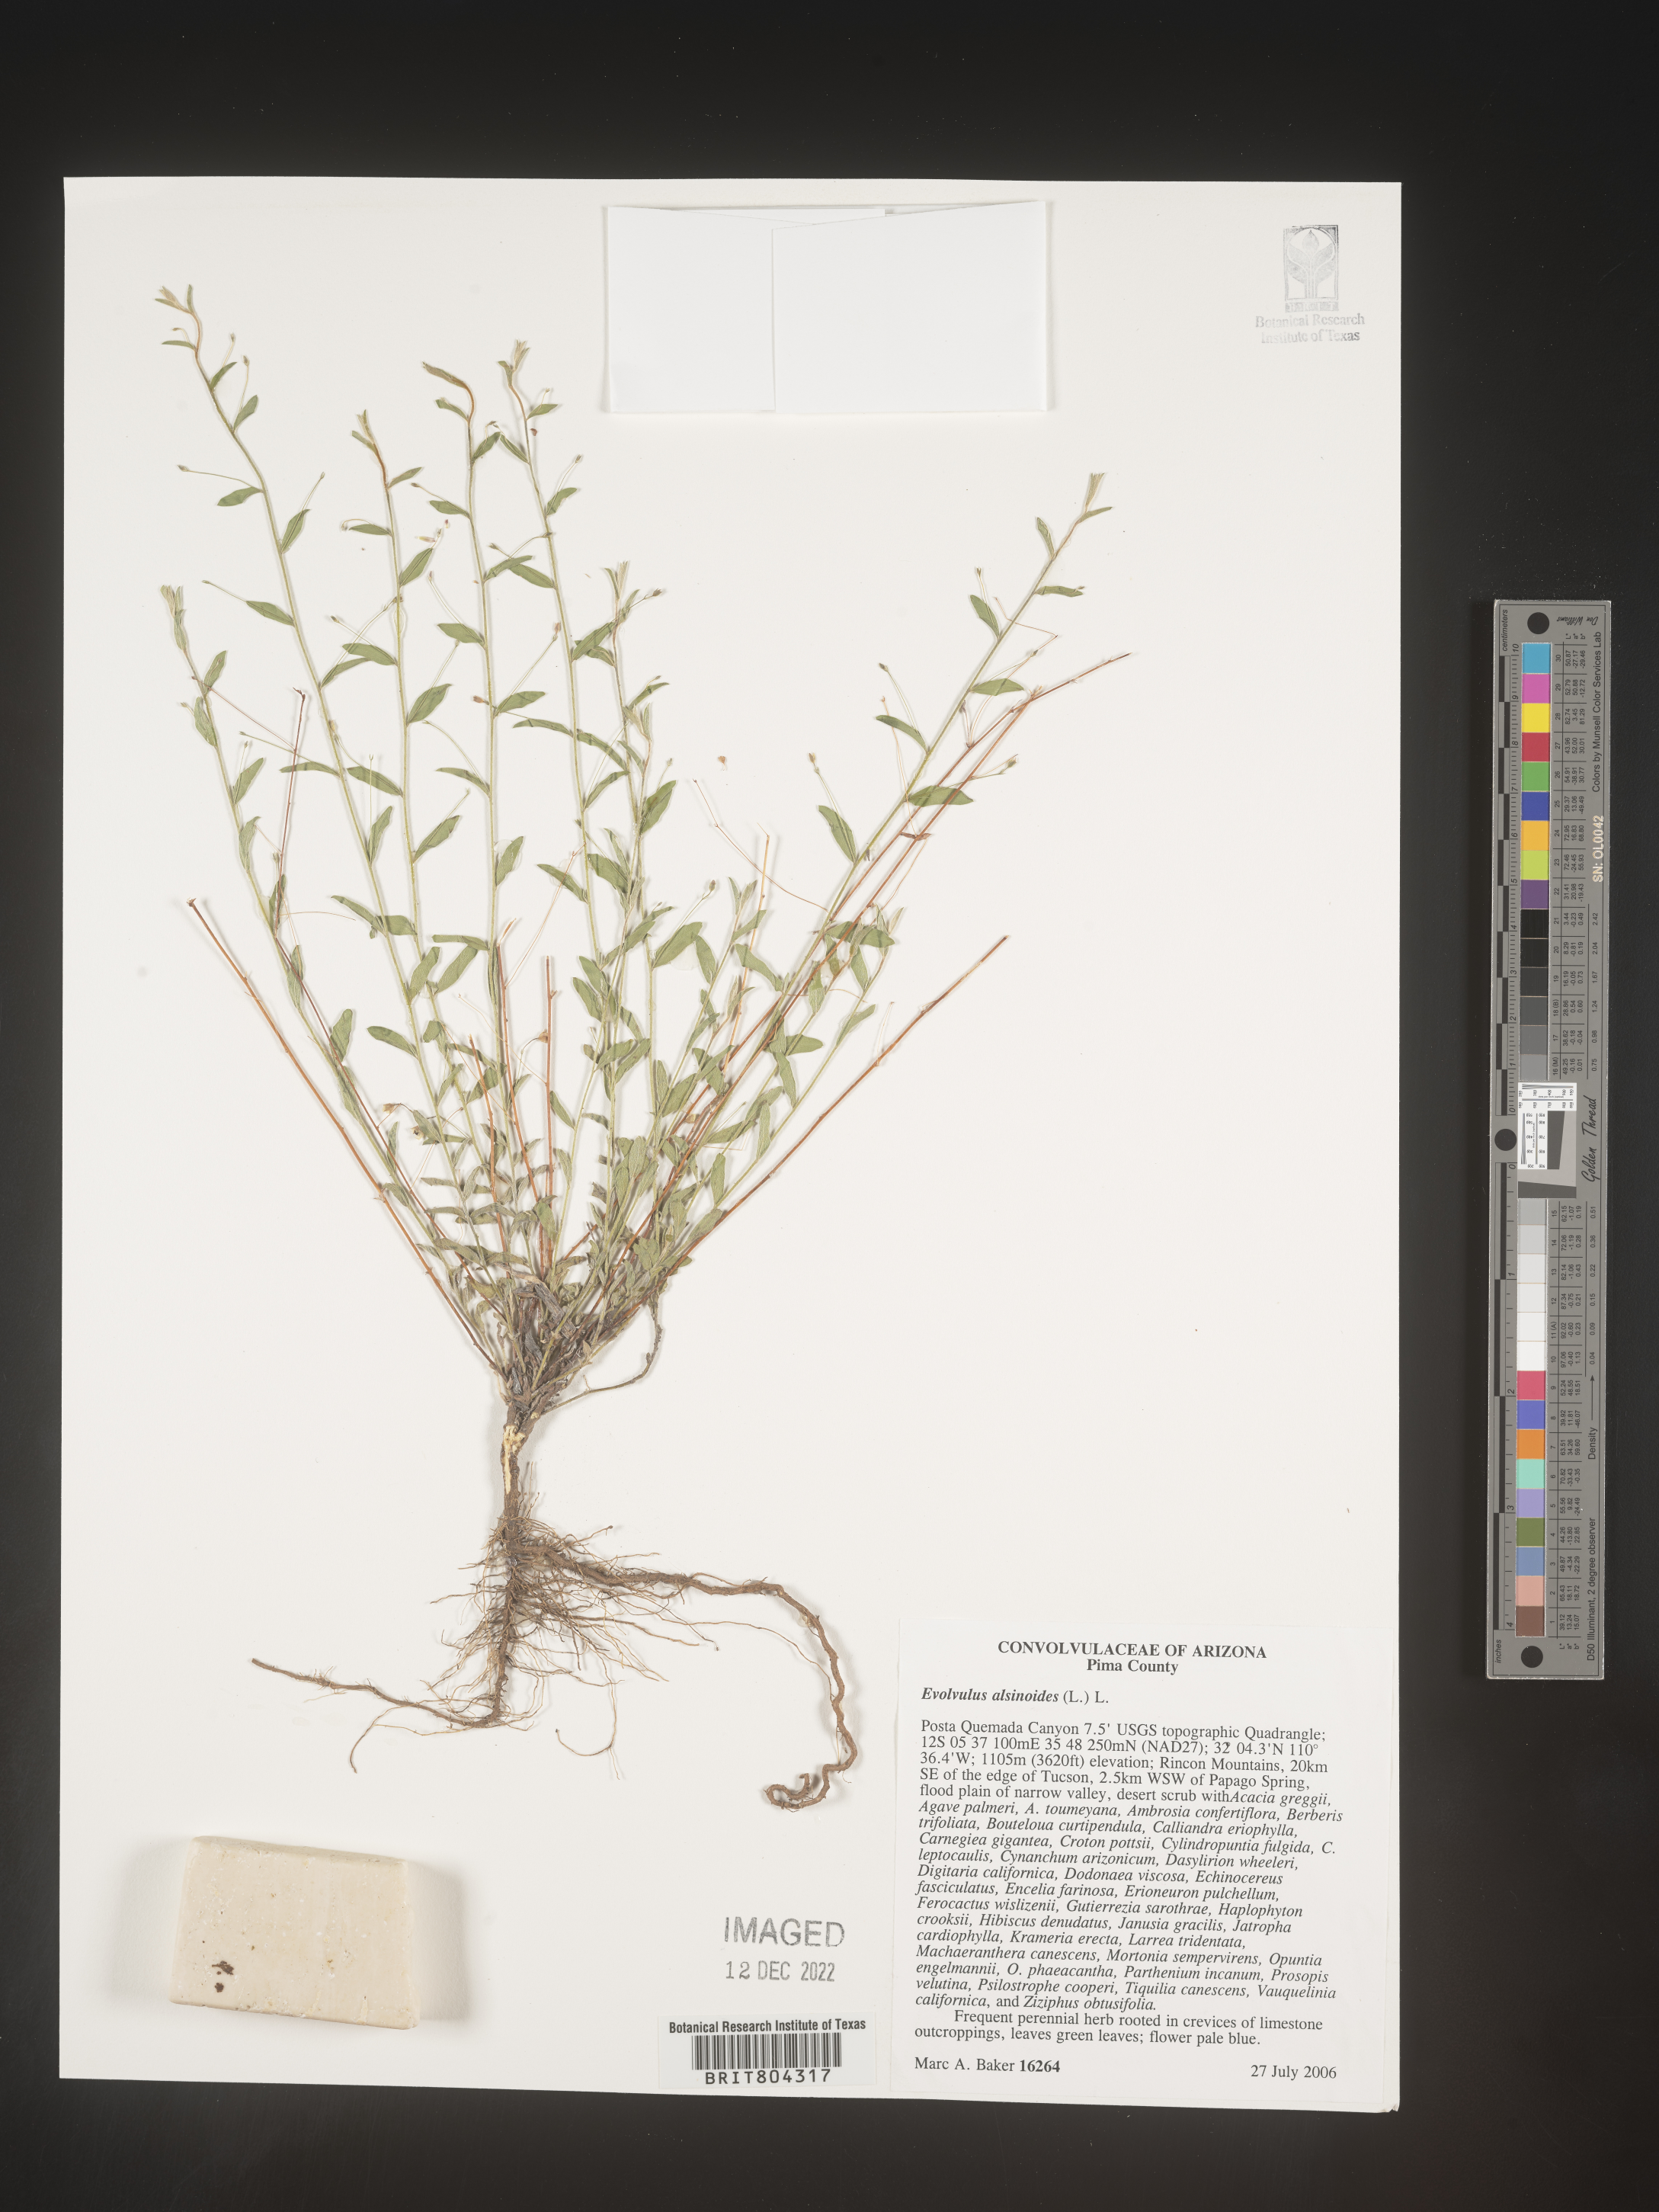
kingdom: Plantae
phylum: Tracheophyta
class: Magnoliopsida
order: Solanales
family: Convolvulaceae
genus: Evolvulus
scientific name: Evolvulus alsinoides
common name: Slender dwarf morning-glory
